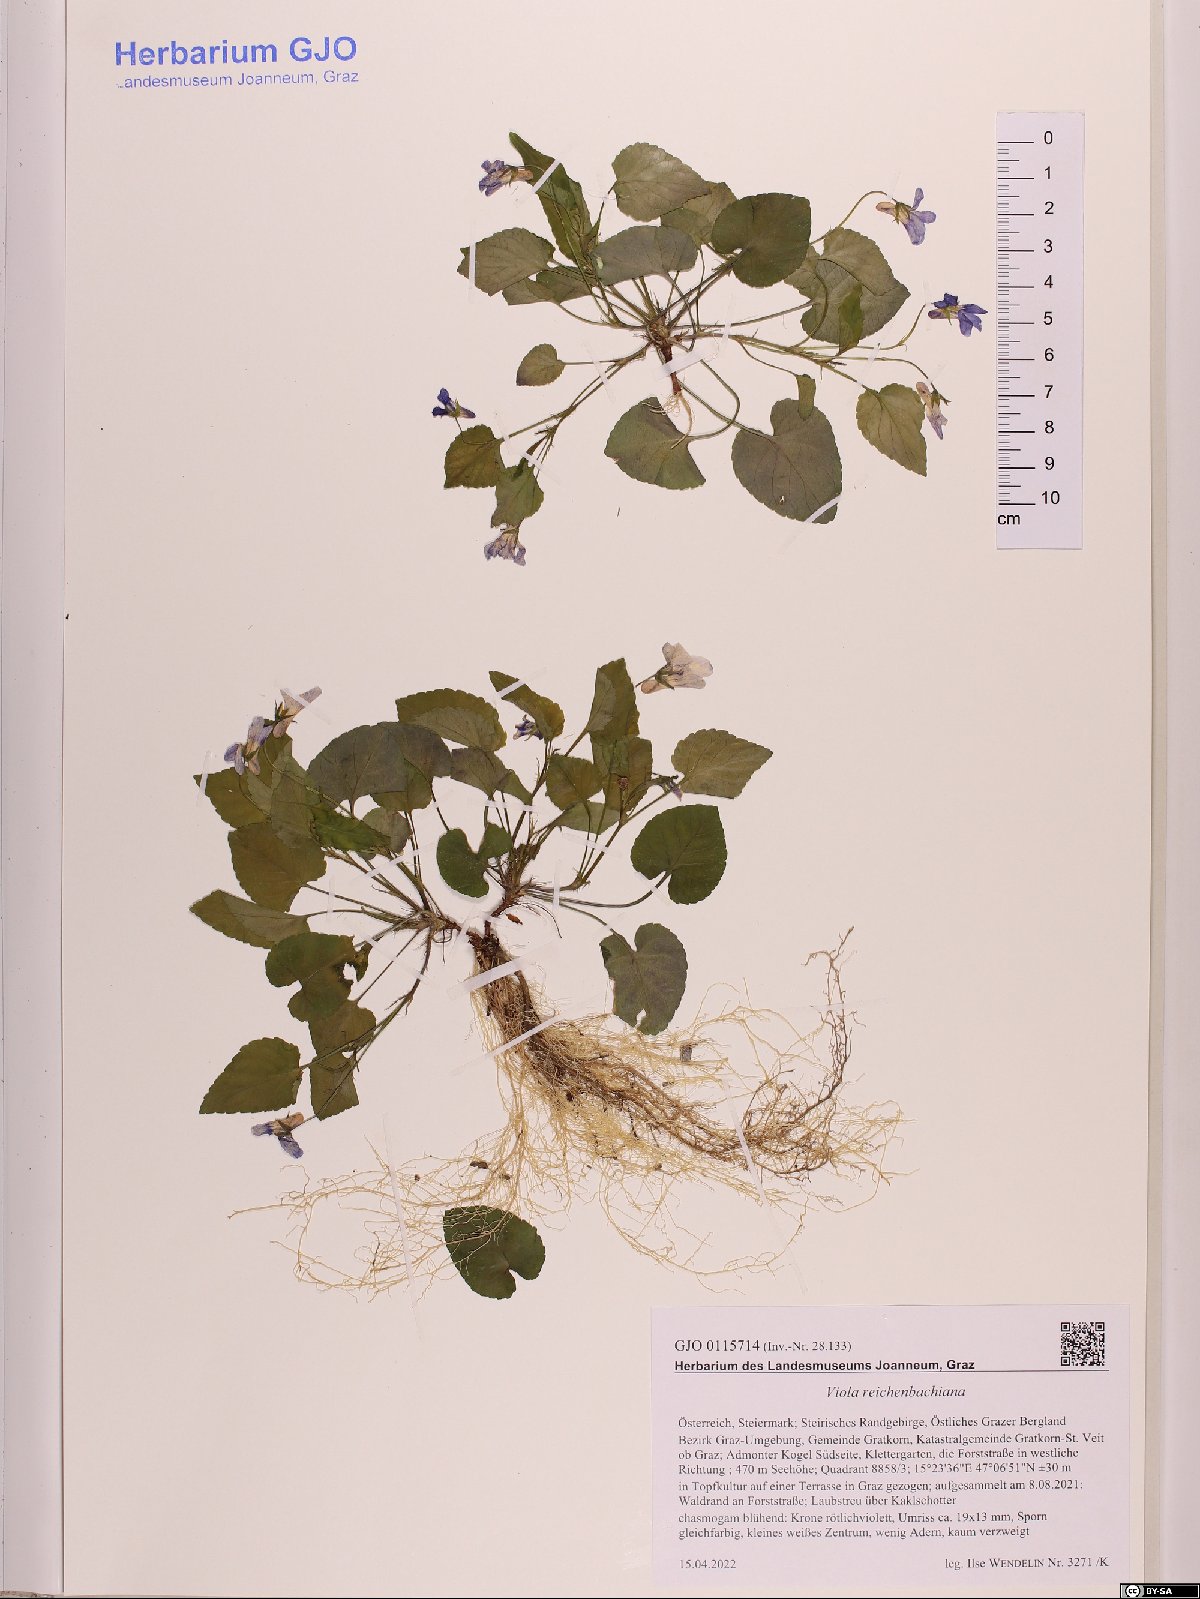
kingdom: Plantae
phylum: Tracheophyta
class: Magnoliopsida
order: Malpighiales
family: Violaceae
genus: Viola
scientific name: Viola reichenbachiana
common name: Early dog-violet
